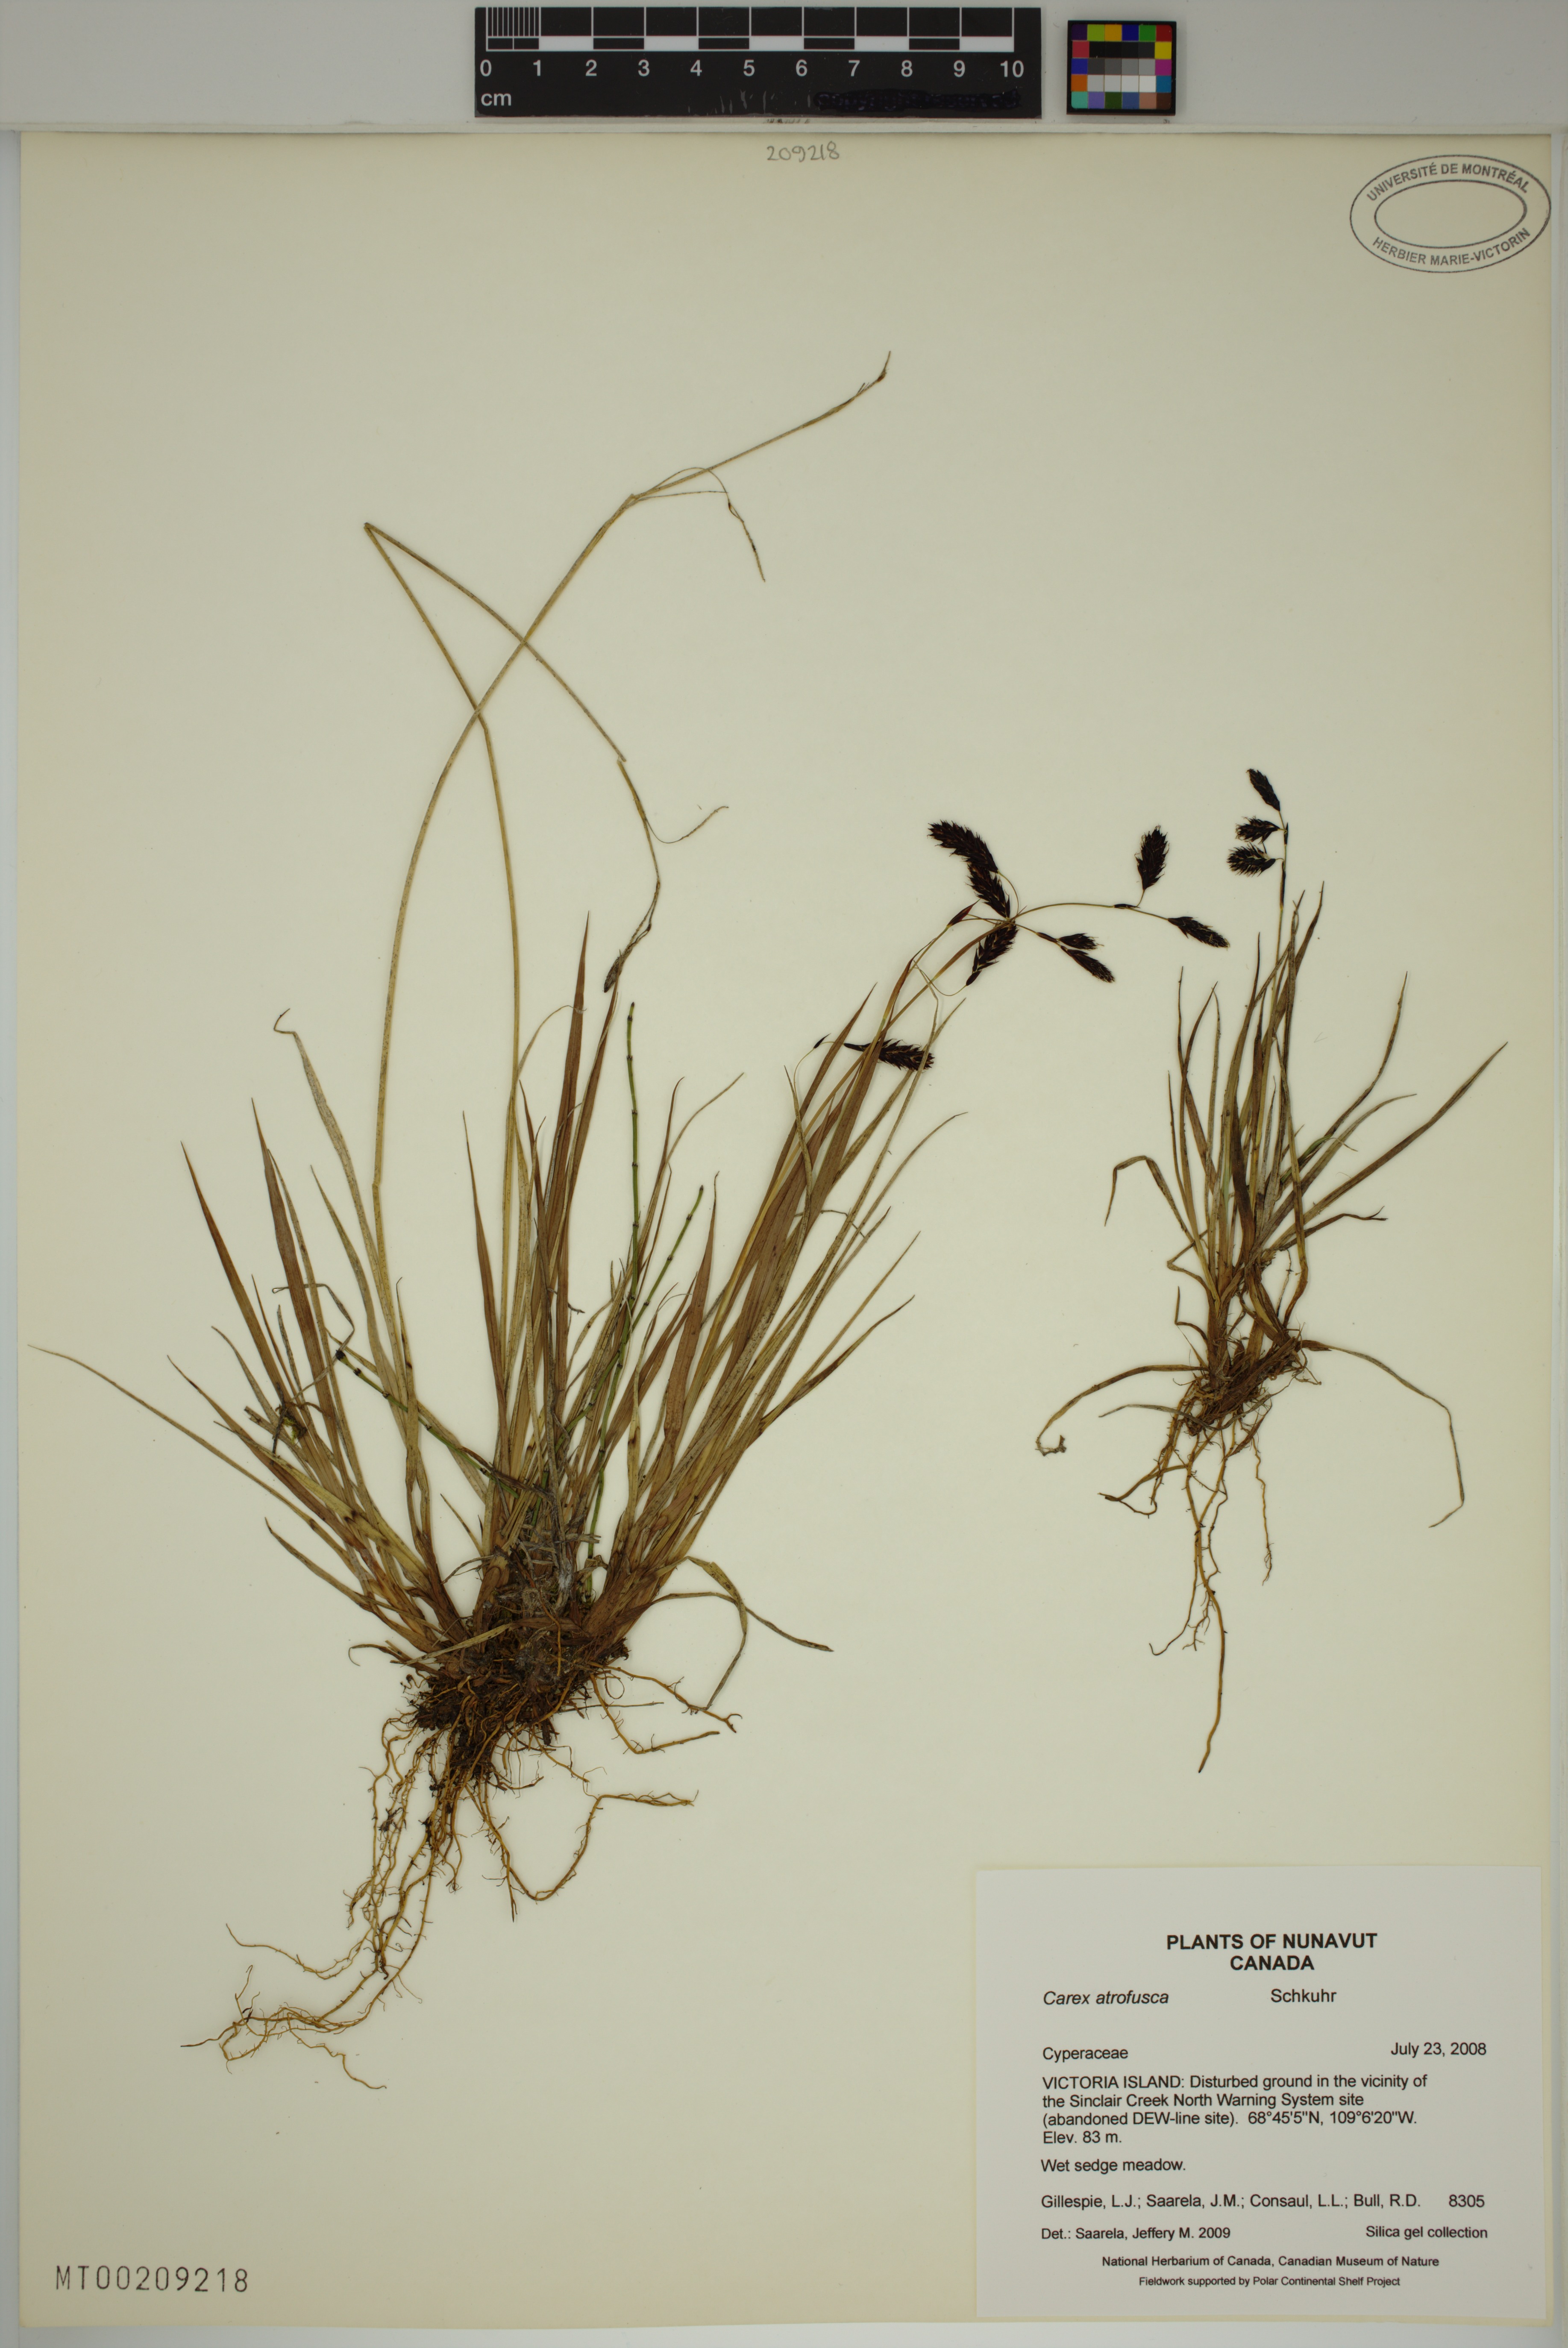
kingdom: Plantae
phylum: Tracheophyta
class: Liliopsida
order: Poales
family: Cyperaceae
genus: Carex
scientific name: Carex atrofusca
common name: Scorched alpine-sedge
